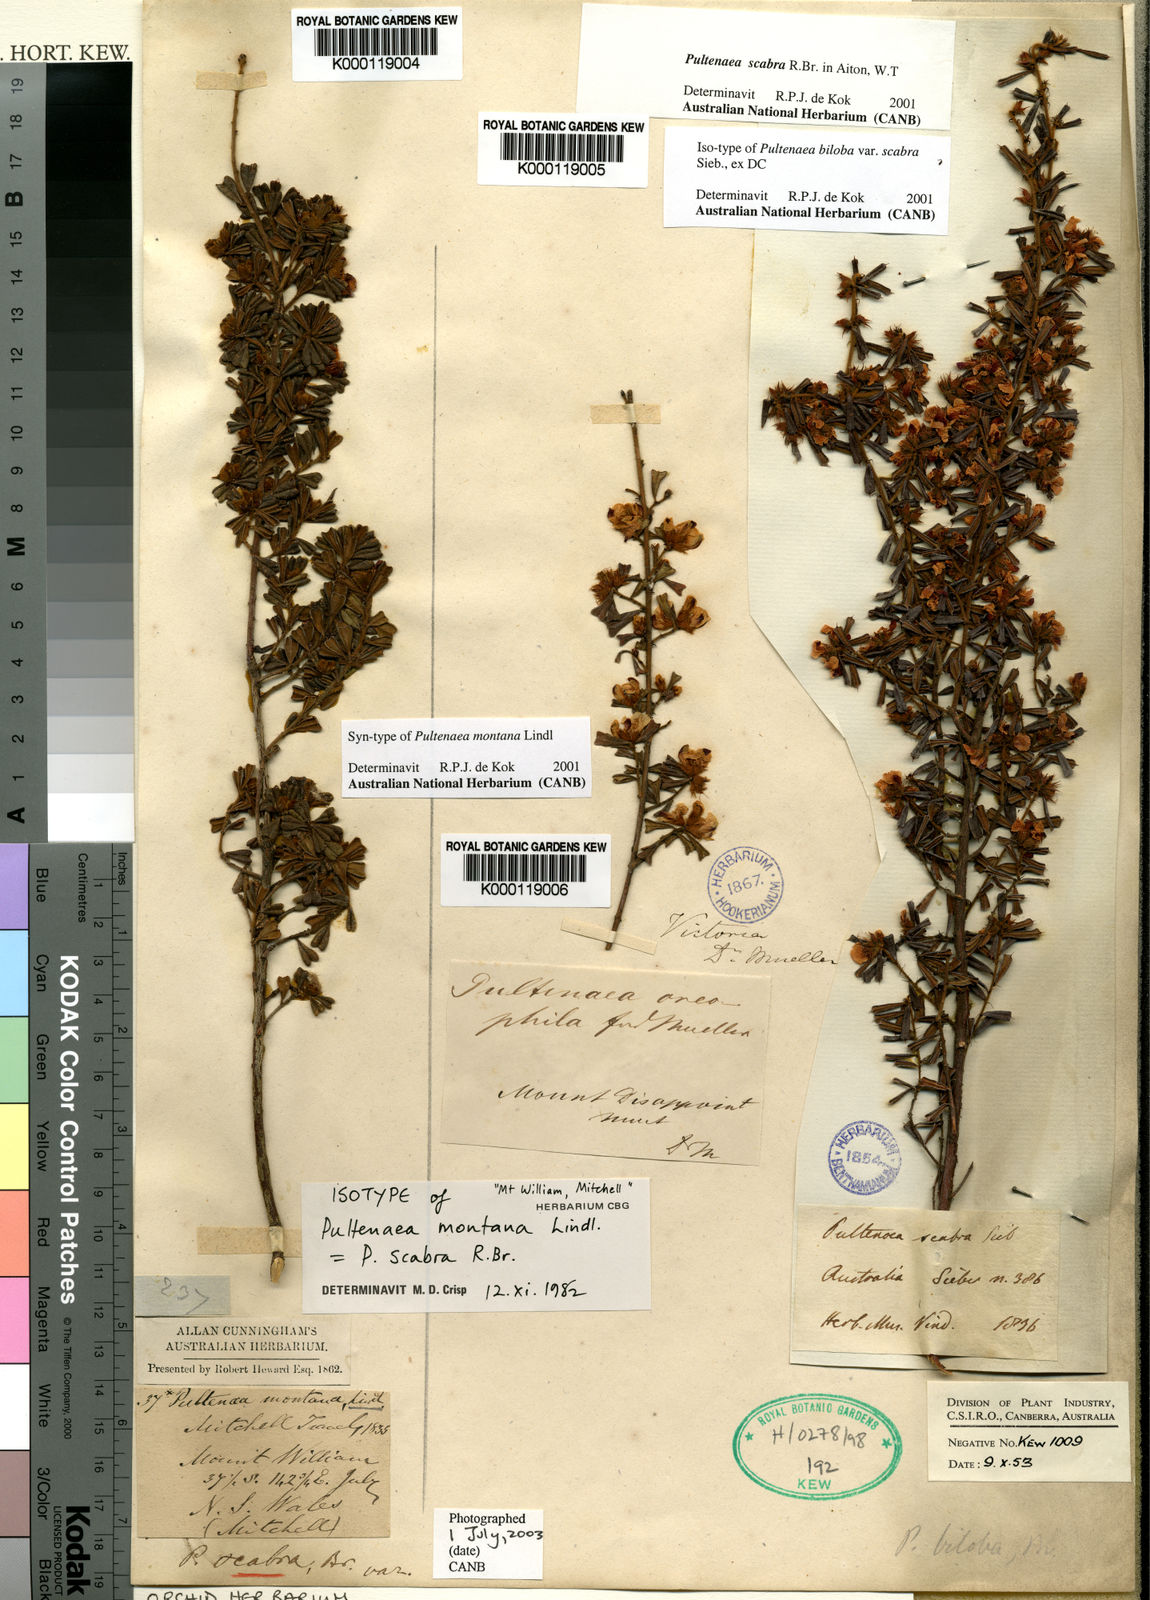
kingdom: Plantae
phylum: Tracheophyta
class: Magnoliopsida
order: Fabales
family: Fabaceae
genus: Pultenaea
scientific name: Pultenaea scabra
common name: Rough bush-pea
